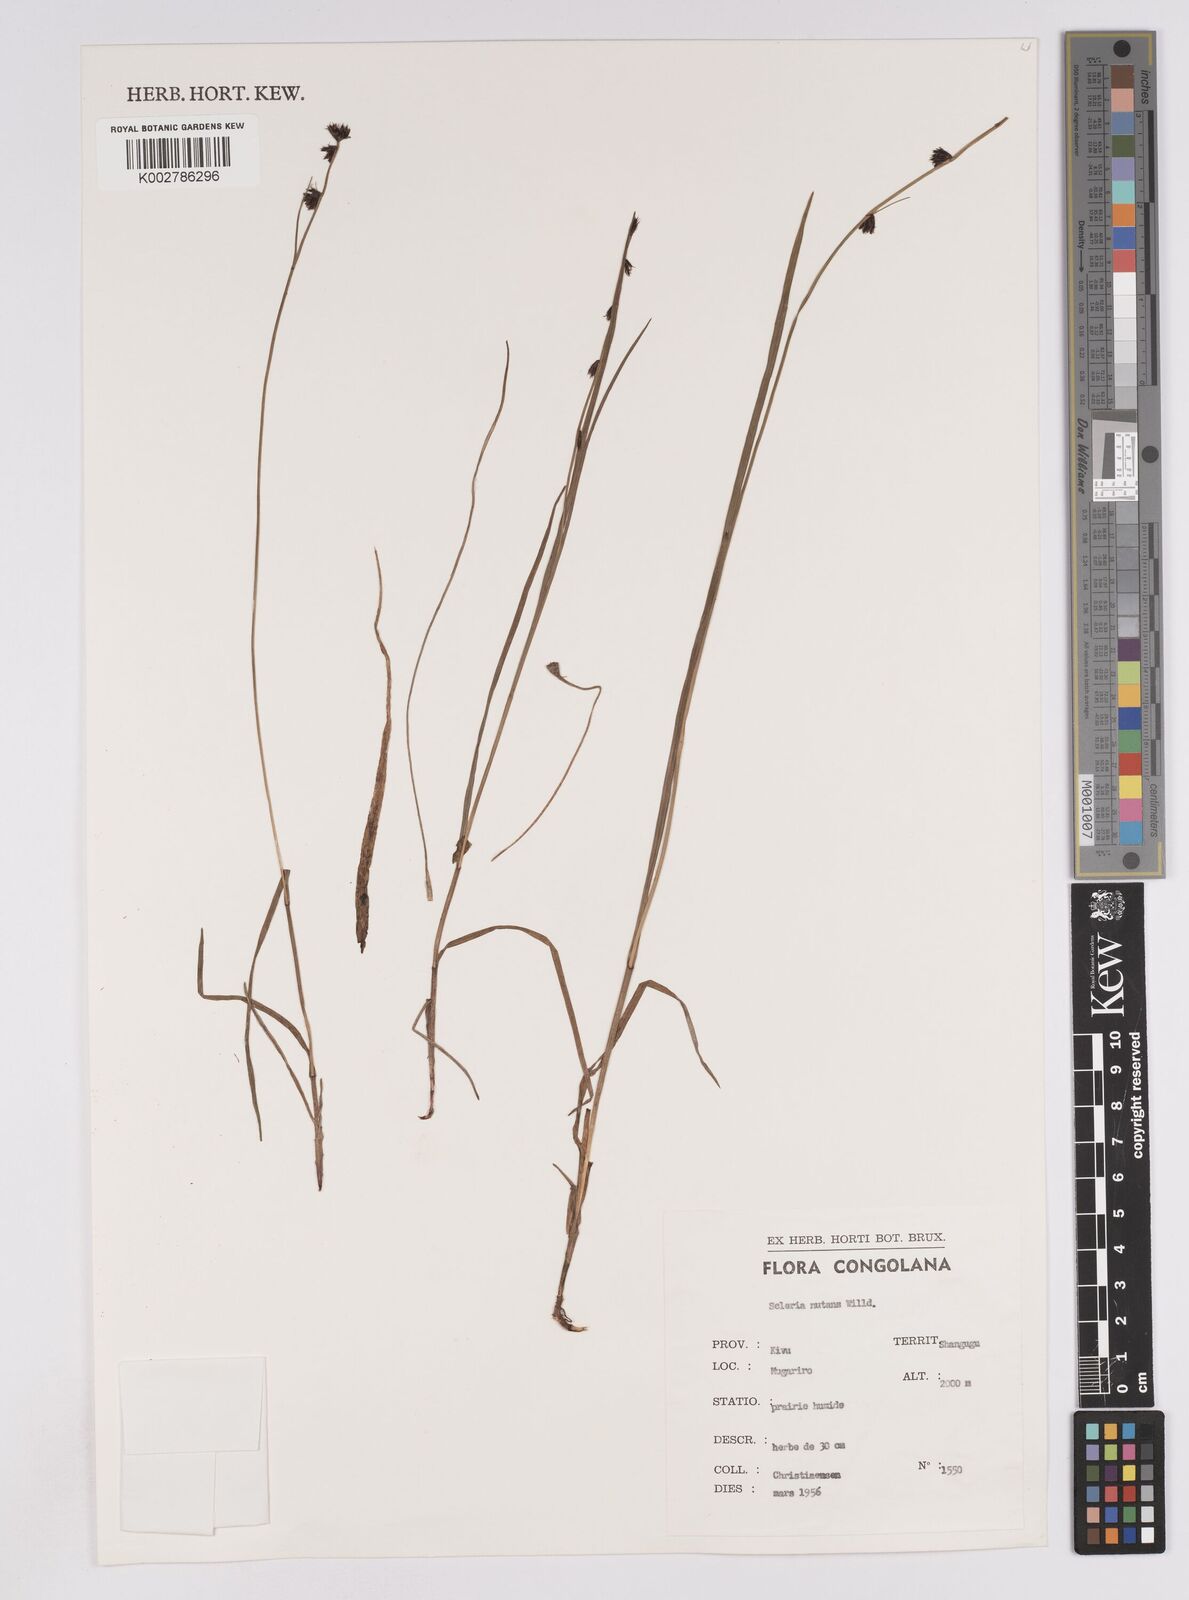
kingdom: Plantae
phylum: Tracheophyta
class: Liliopsida
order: Poales
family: Cyperaceae
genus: Scleria
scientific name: Scleria brownii
